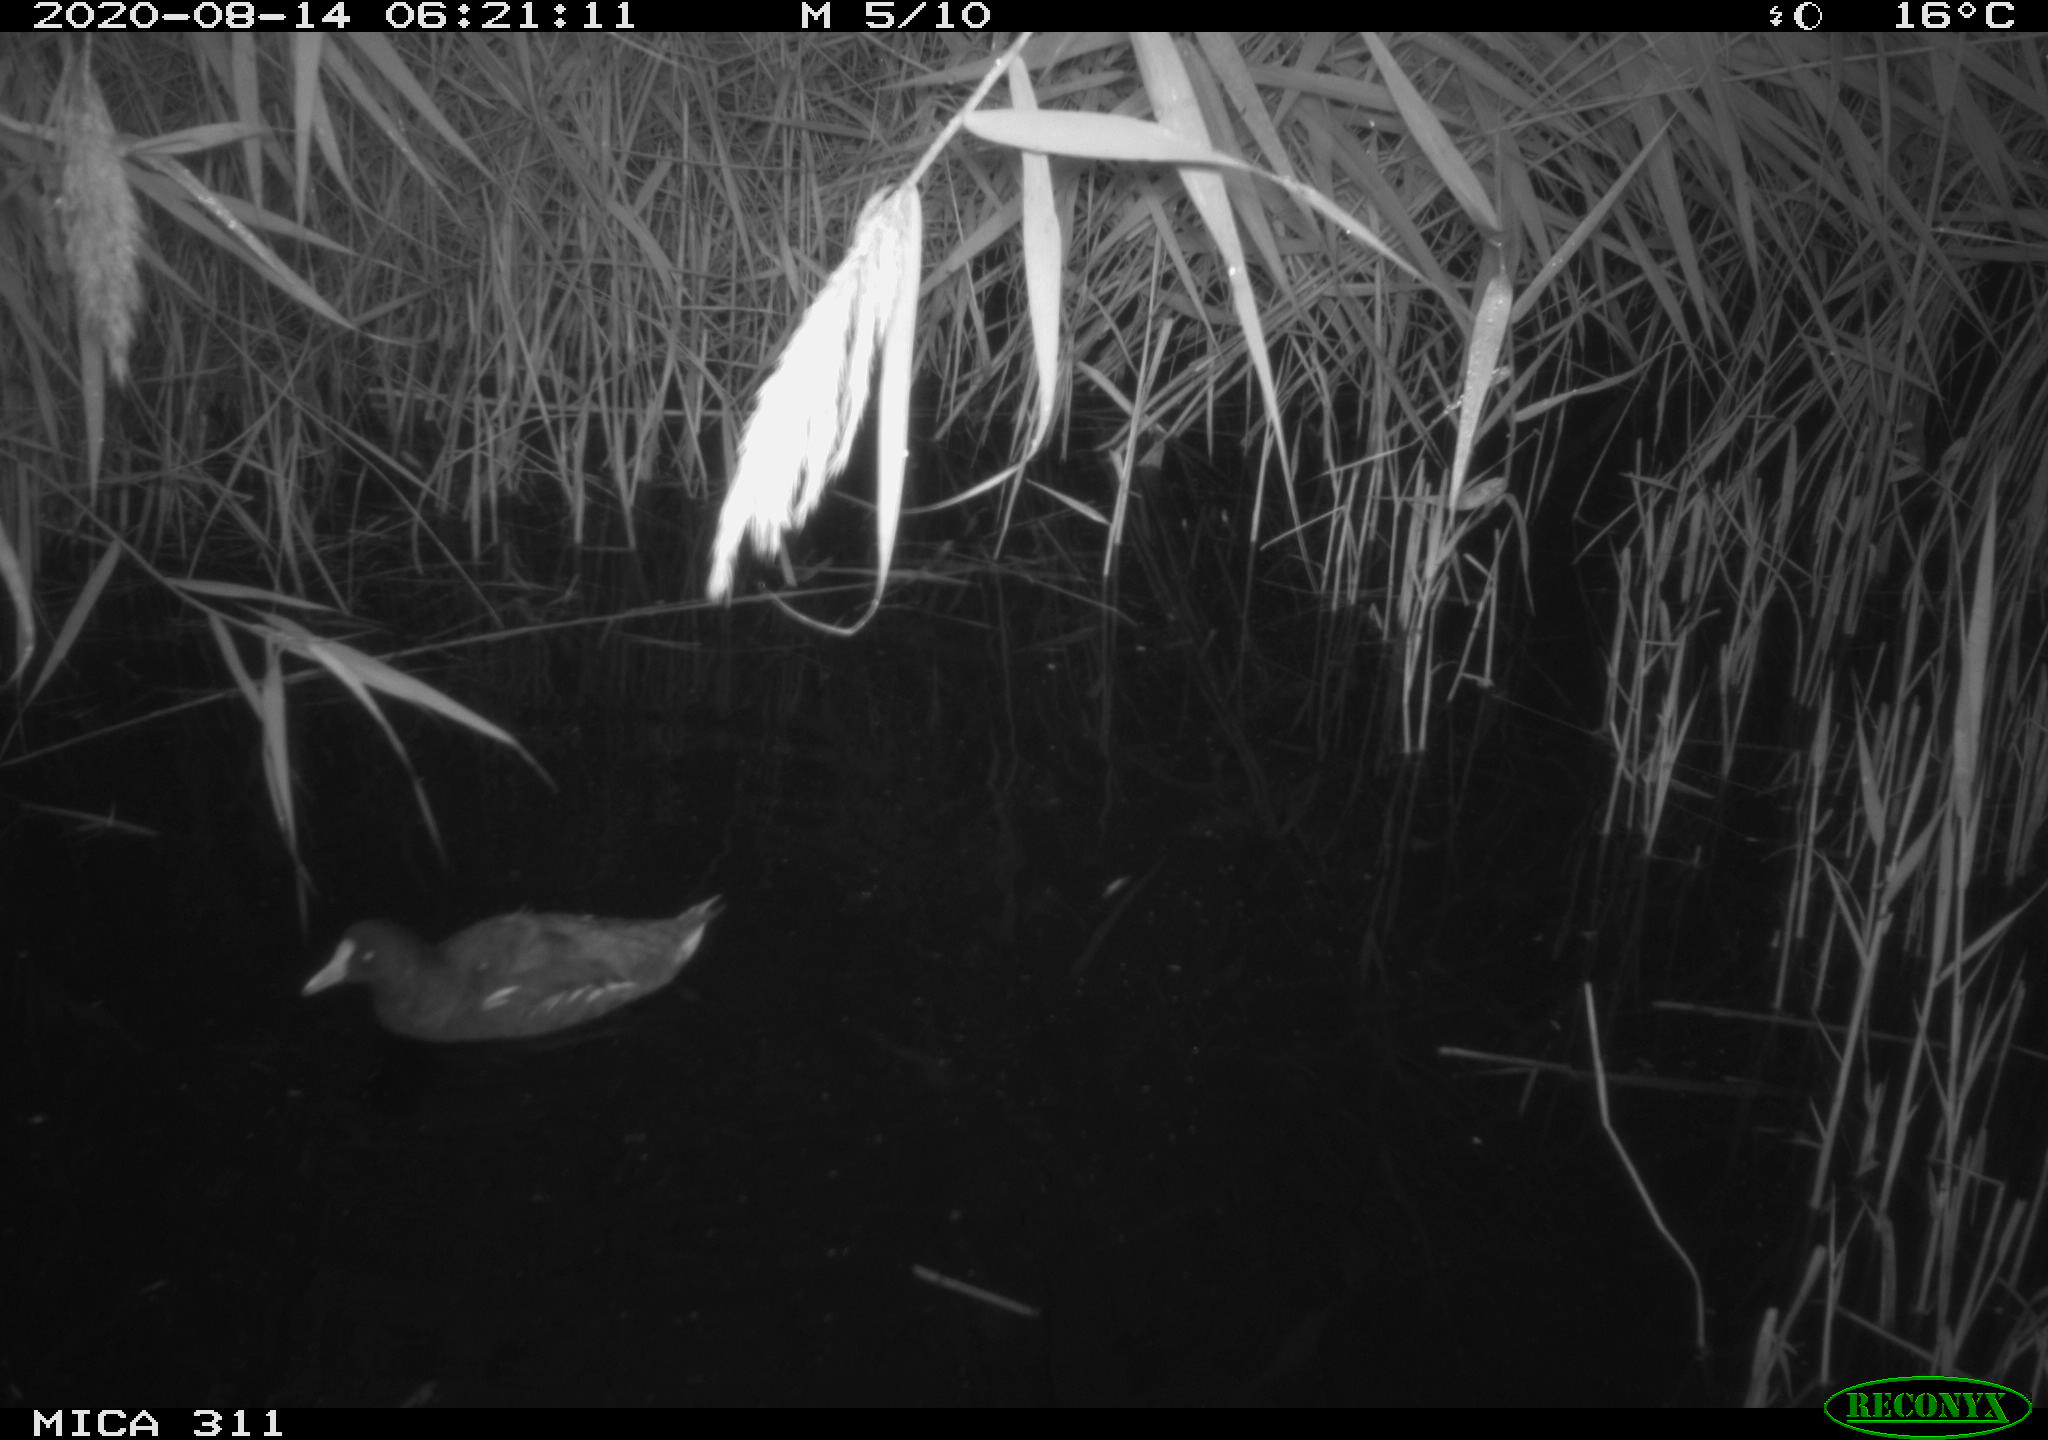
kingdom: Animalia
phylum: Chordata
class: Aves
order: Gruiformes
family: Rallidae
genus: Fulica
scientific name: Fulica atra
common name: Eurasian coot
